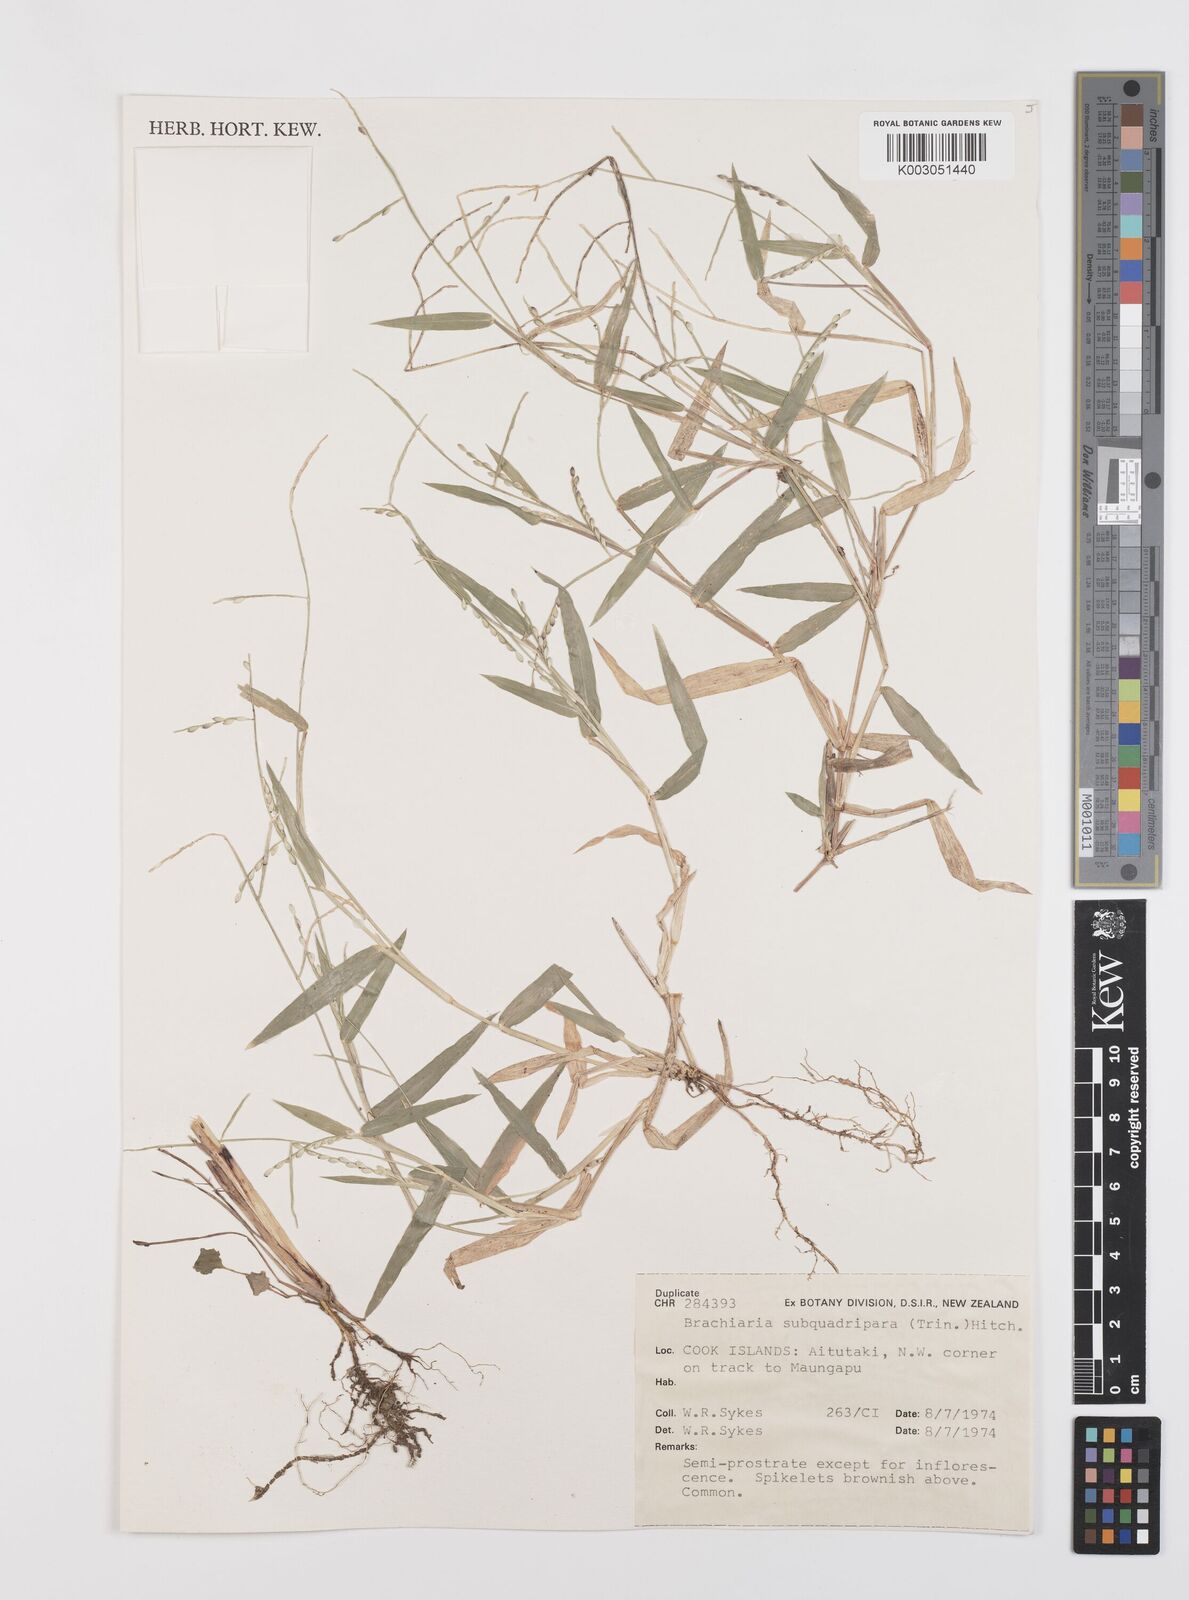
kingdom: Plantae
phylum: Tracheophyta
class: Liliopsida
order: Poales
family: Poaceae
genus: Urochloa
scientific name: Urochloa subquadripara
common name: Armgrass millet
